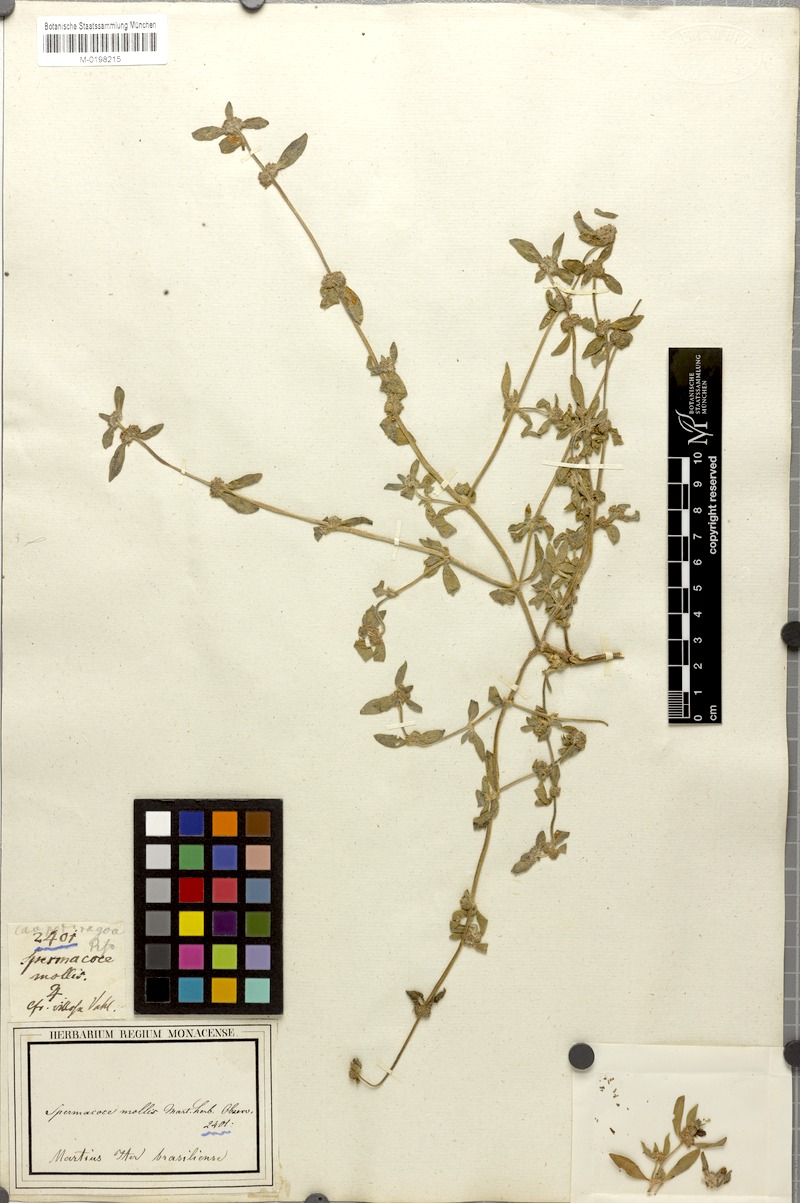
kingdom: Plantae
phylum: Tracheophyta
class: Magnoliopsida
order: Gentianales
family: Rubiaceae
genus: Mitracarpus
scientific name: Mitracarpus hirtus
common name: Tropical girdlepod
